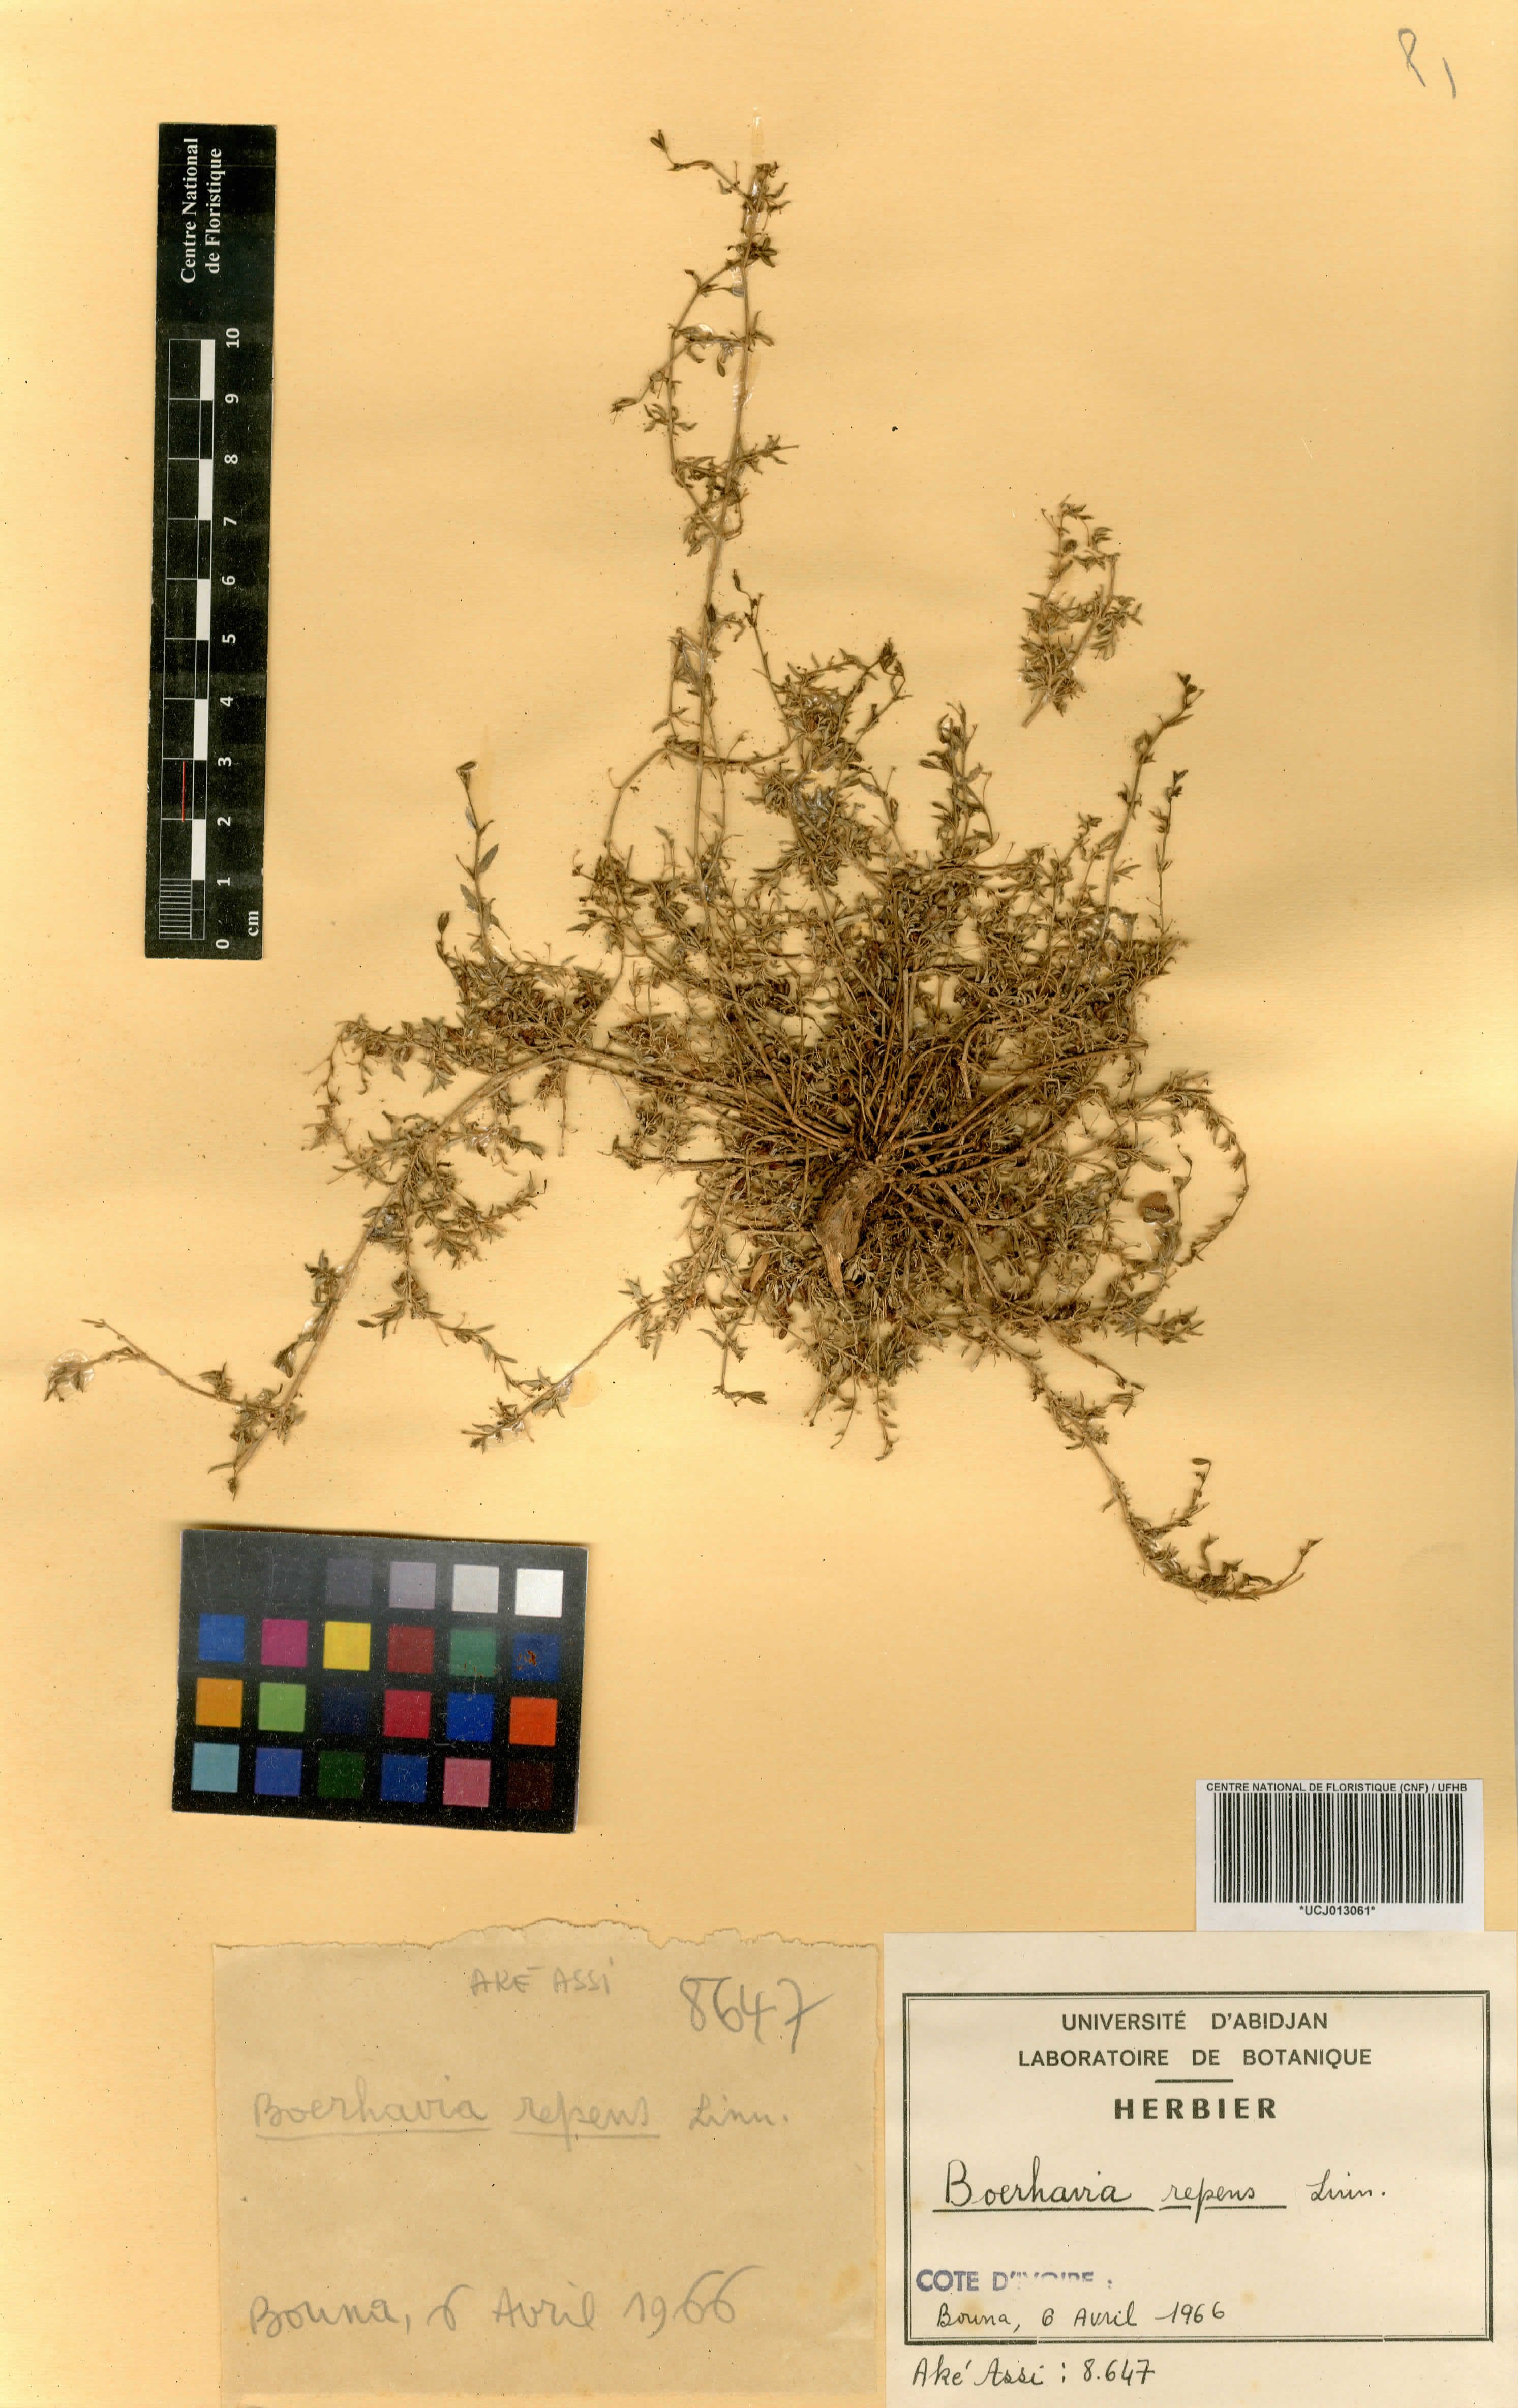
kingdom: Plantae
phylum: Tracheophyta
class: Magnoliopsida
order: Caryophyllales
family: Nyctaginaceae
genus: Boerhavia
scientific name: Boerhavia repens
